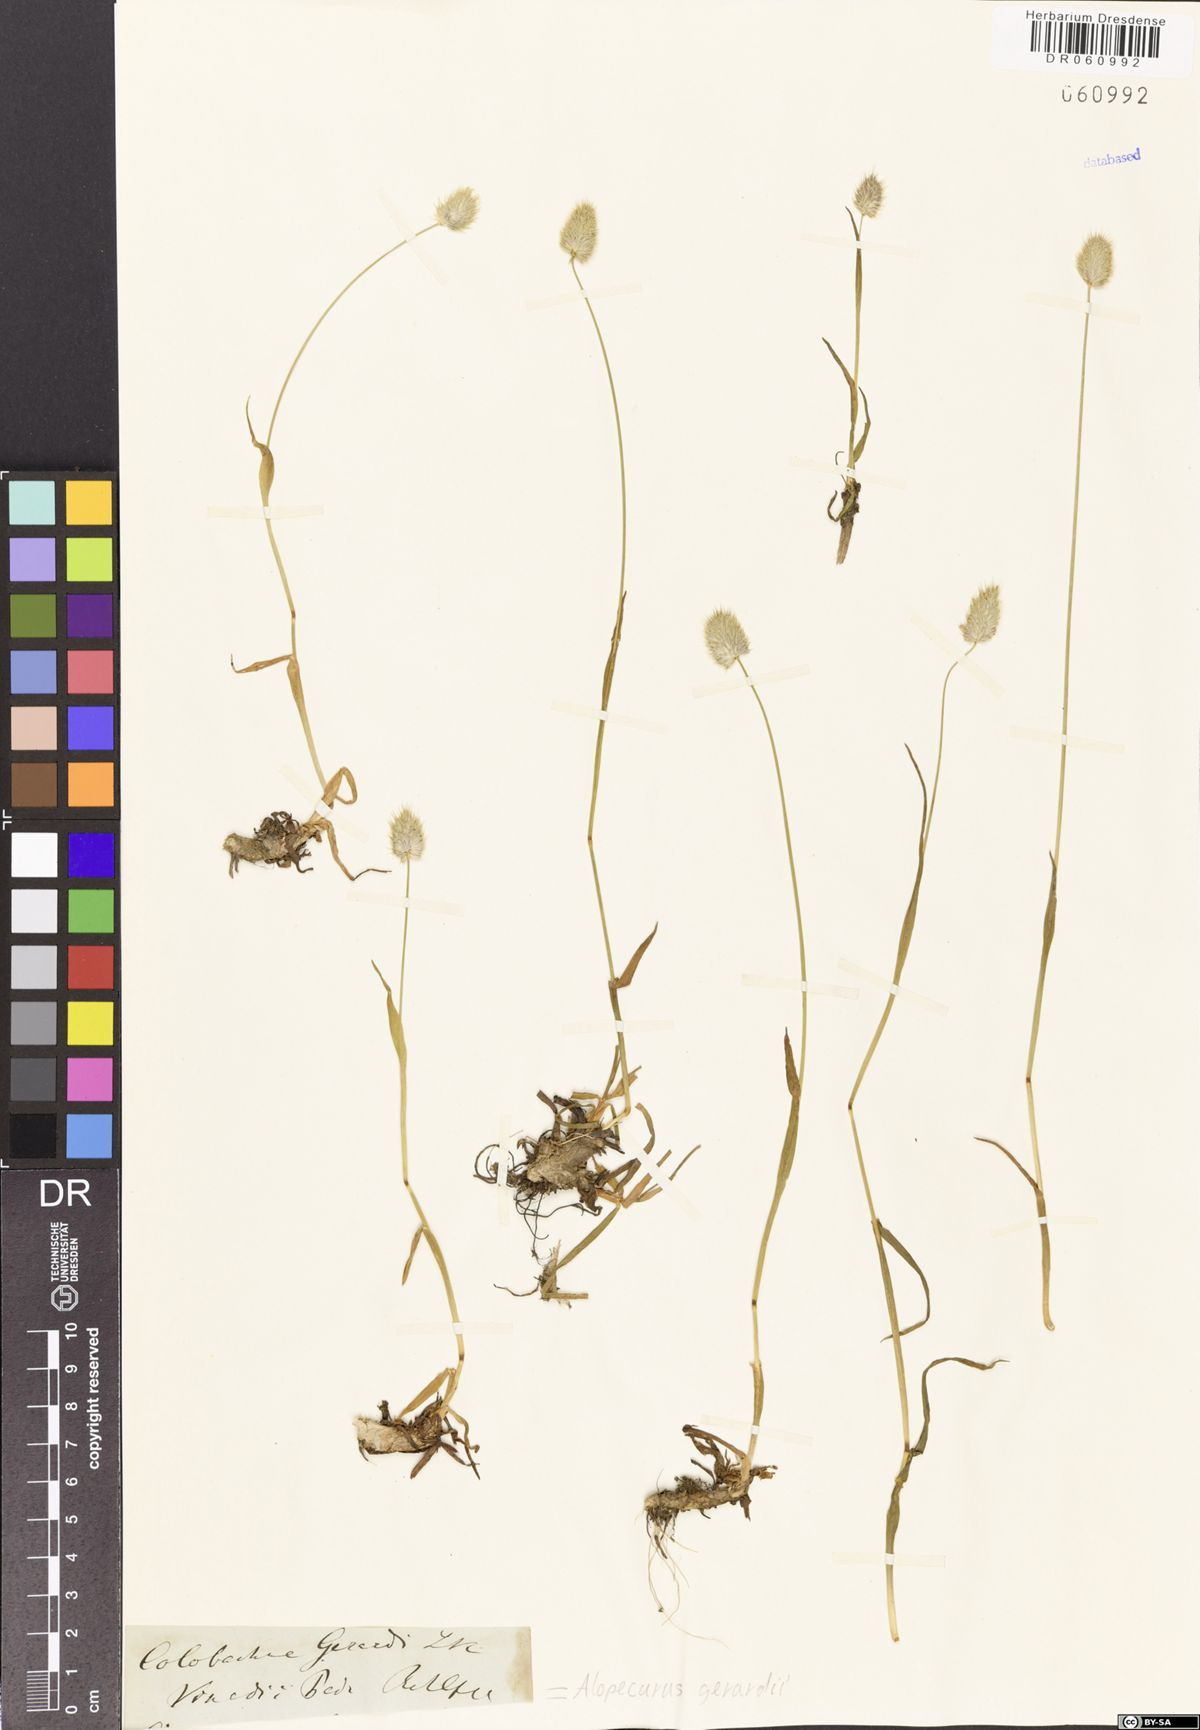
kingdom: Plantae
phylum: Tracheophyta
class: Liliopsida
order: Poales
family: Poaceae
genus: Alopecurus
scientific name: Alopecurus gerardii
